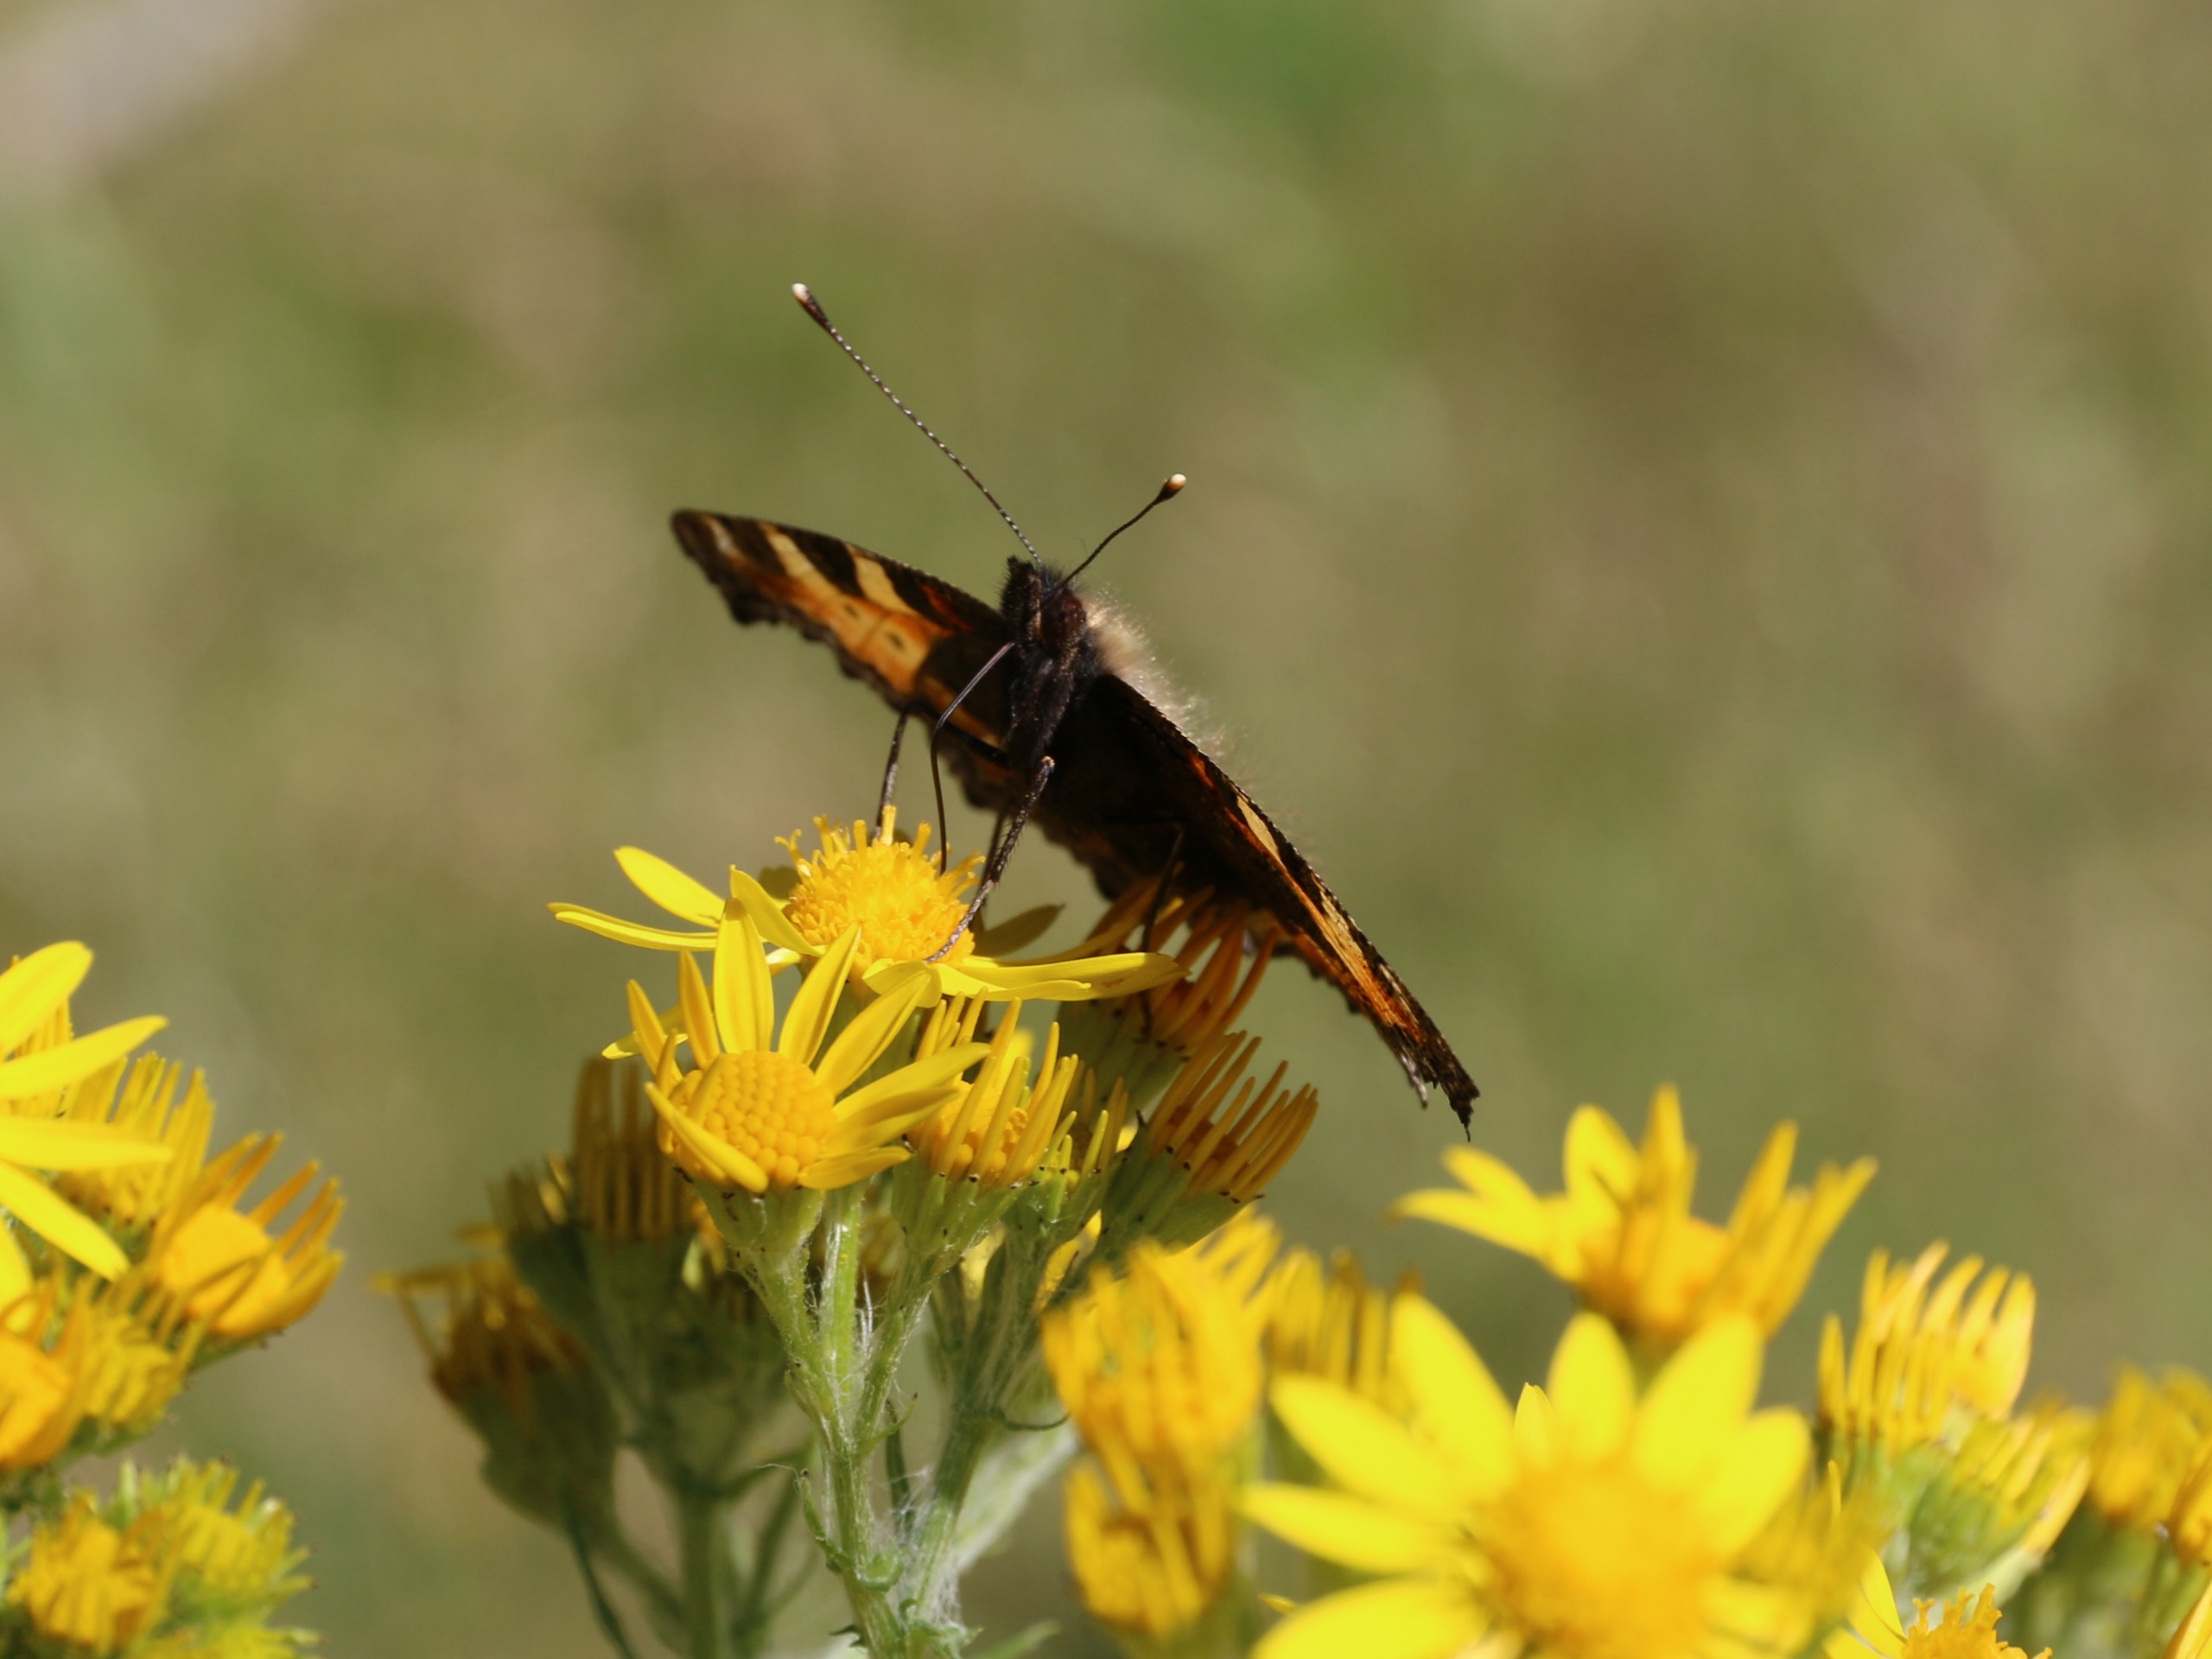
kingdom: Animalia
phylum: Arthropoda
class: Insecta
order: Lepidoptera
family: Nymphalidae
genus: Aglais
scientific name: Aglais urticae
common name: Nældens takvinge
